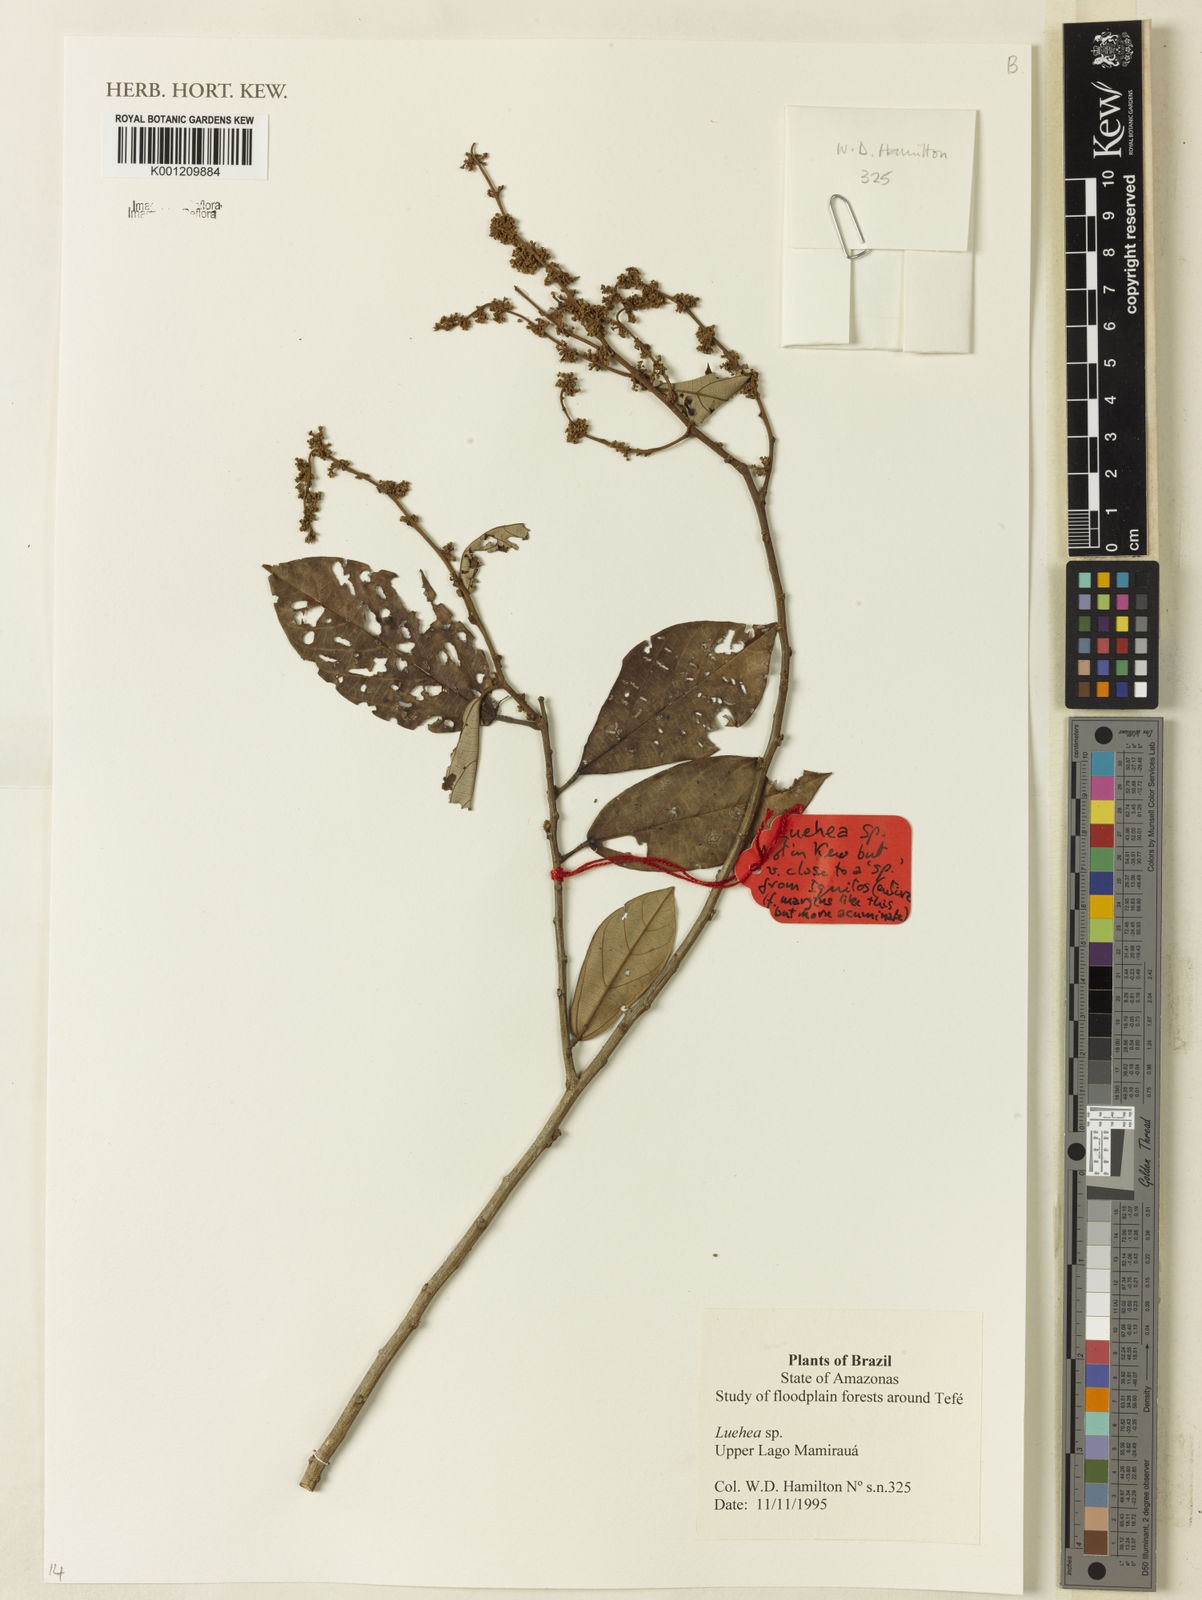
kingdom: Plantae
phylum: Tracheophyta
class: Magnoliopsida
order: Malvales
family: Malvaceae
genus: Luehea
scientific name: Luehea
